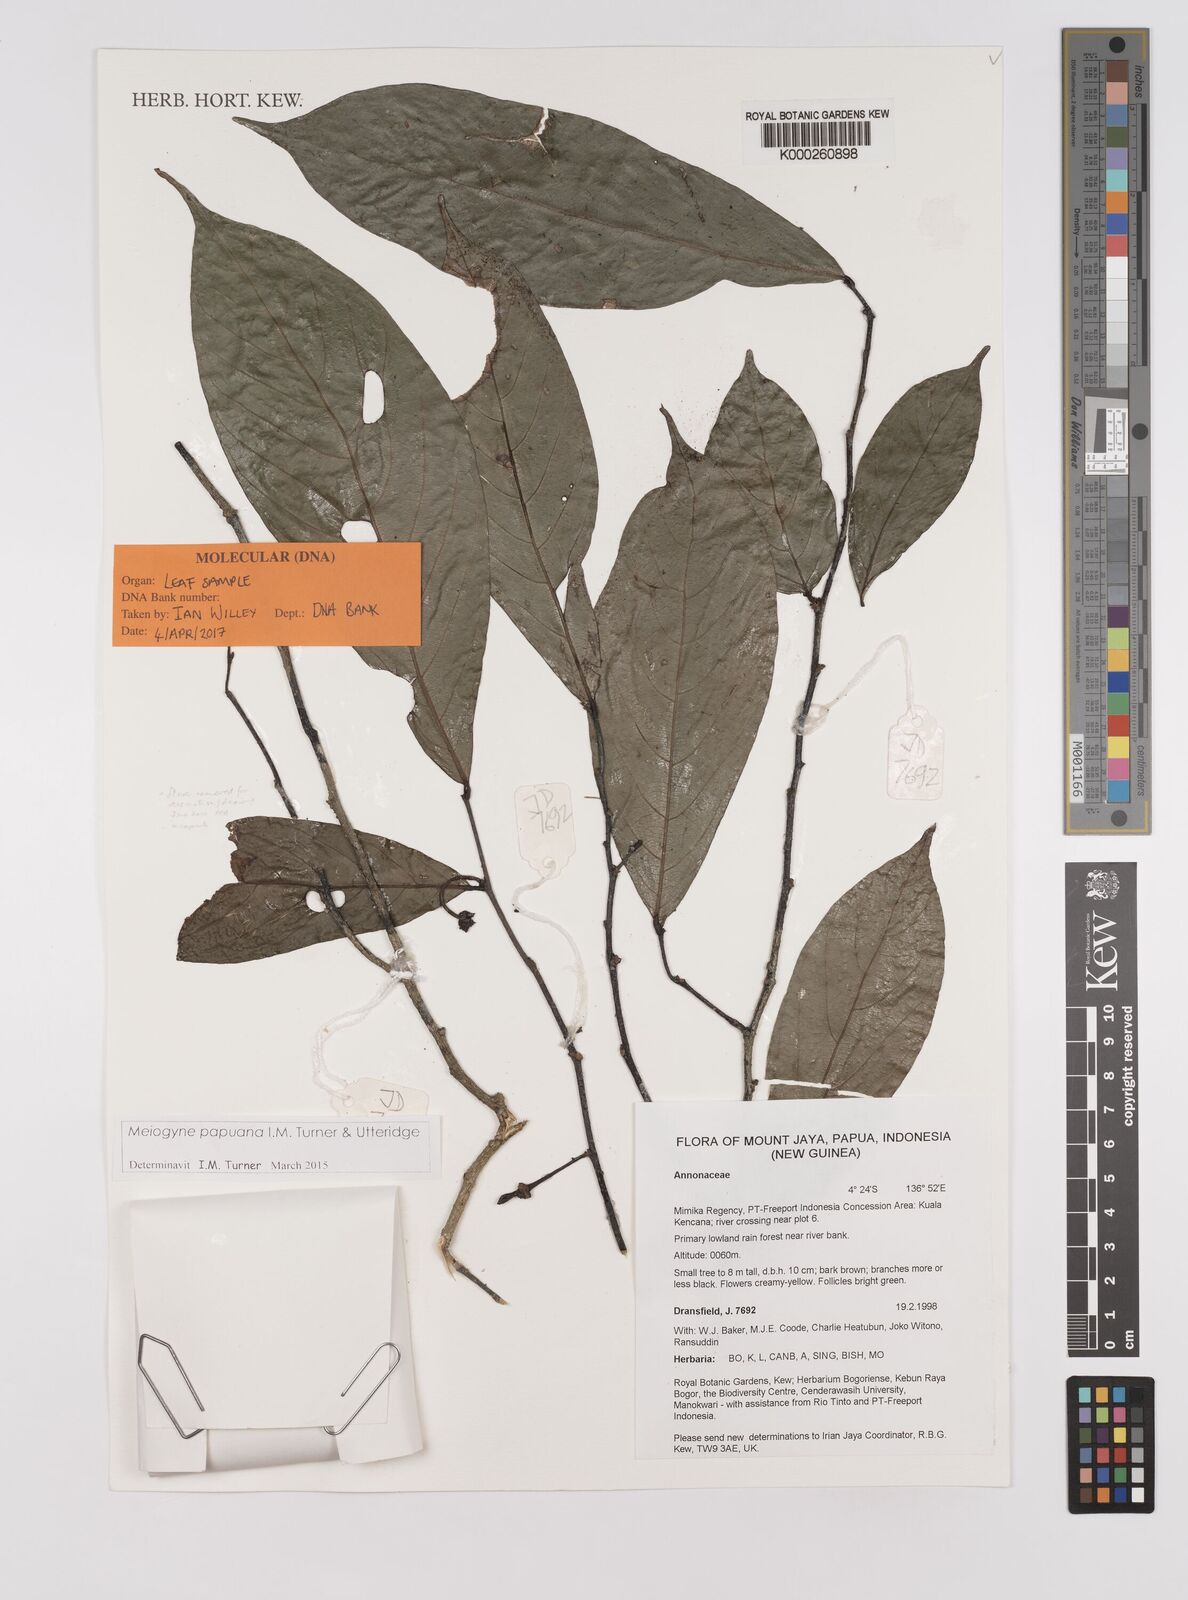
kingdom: Plantae
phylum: Tracheophyta
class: Magnoliopsida
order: Magnoliales
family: Annonaceae
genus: Meiogyne
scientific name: Meiogyne papuana
